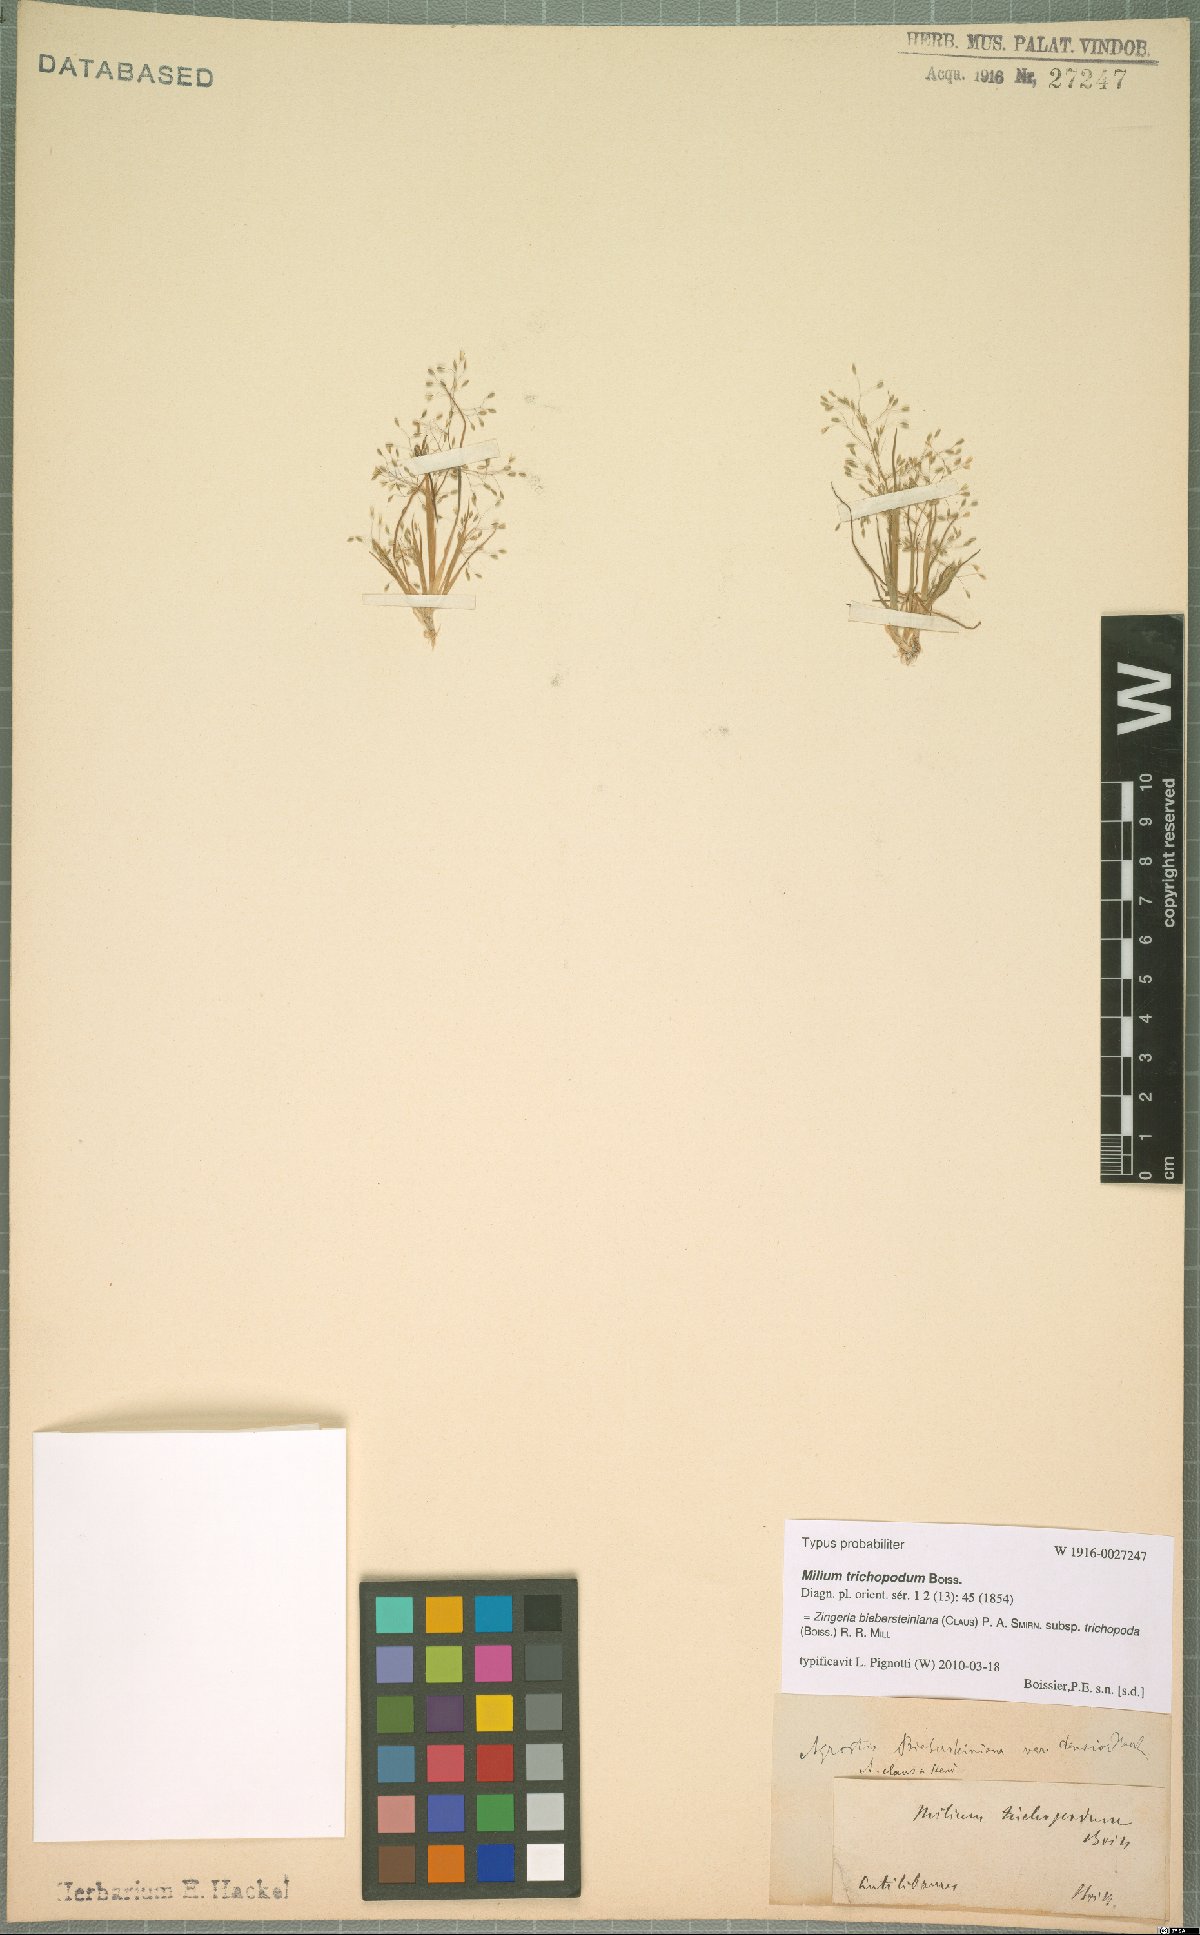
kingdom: Plantae
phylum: Tracheophyta
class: Liliopsida
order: Poales
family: Poaceae
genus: Colpodium
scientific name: Colpodium trichopodum
